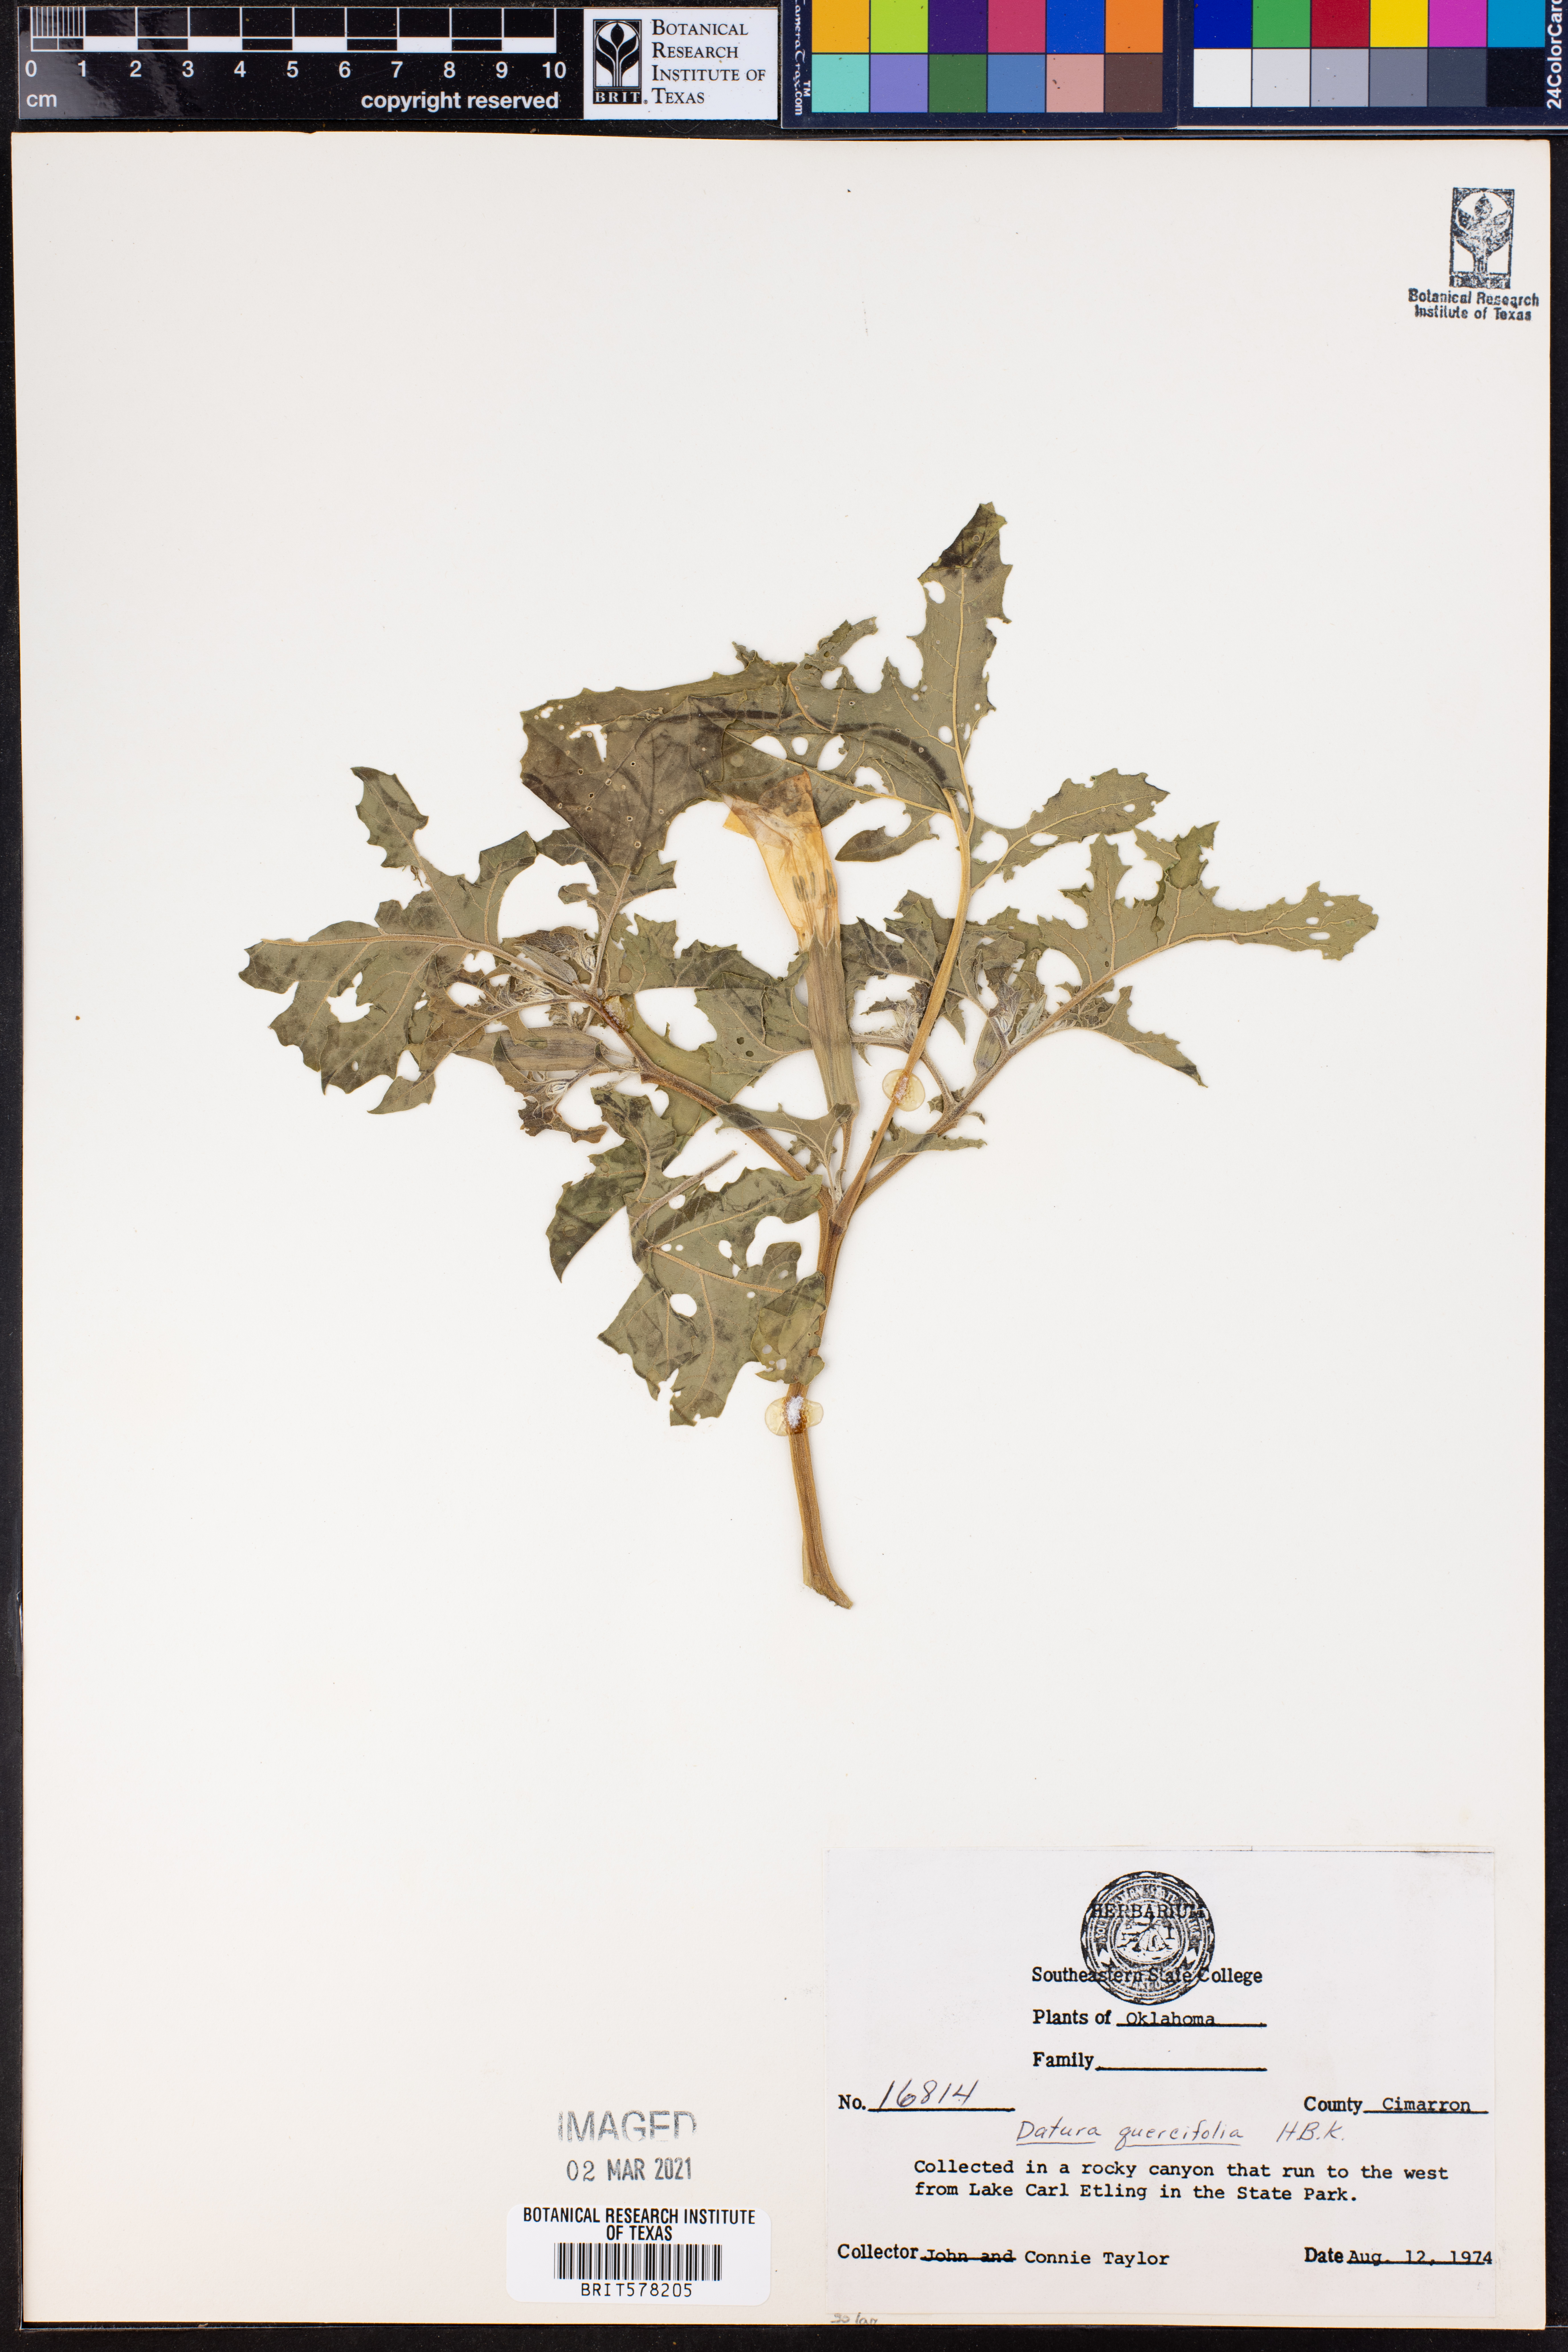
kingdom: Plantae
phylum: Tracheophyta
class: Magnoliopsida
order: Solanales
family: Solanaceae
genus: Datura
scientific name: Datura quercifolia
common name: Oak-leaf datura
